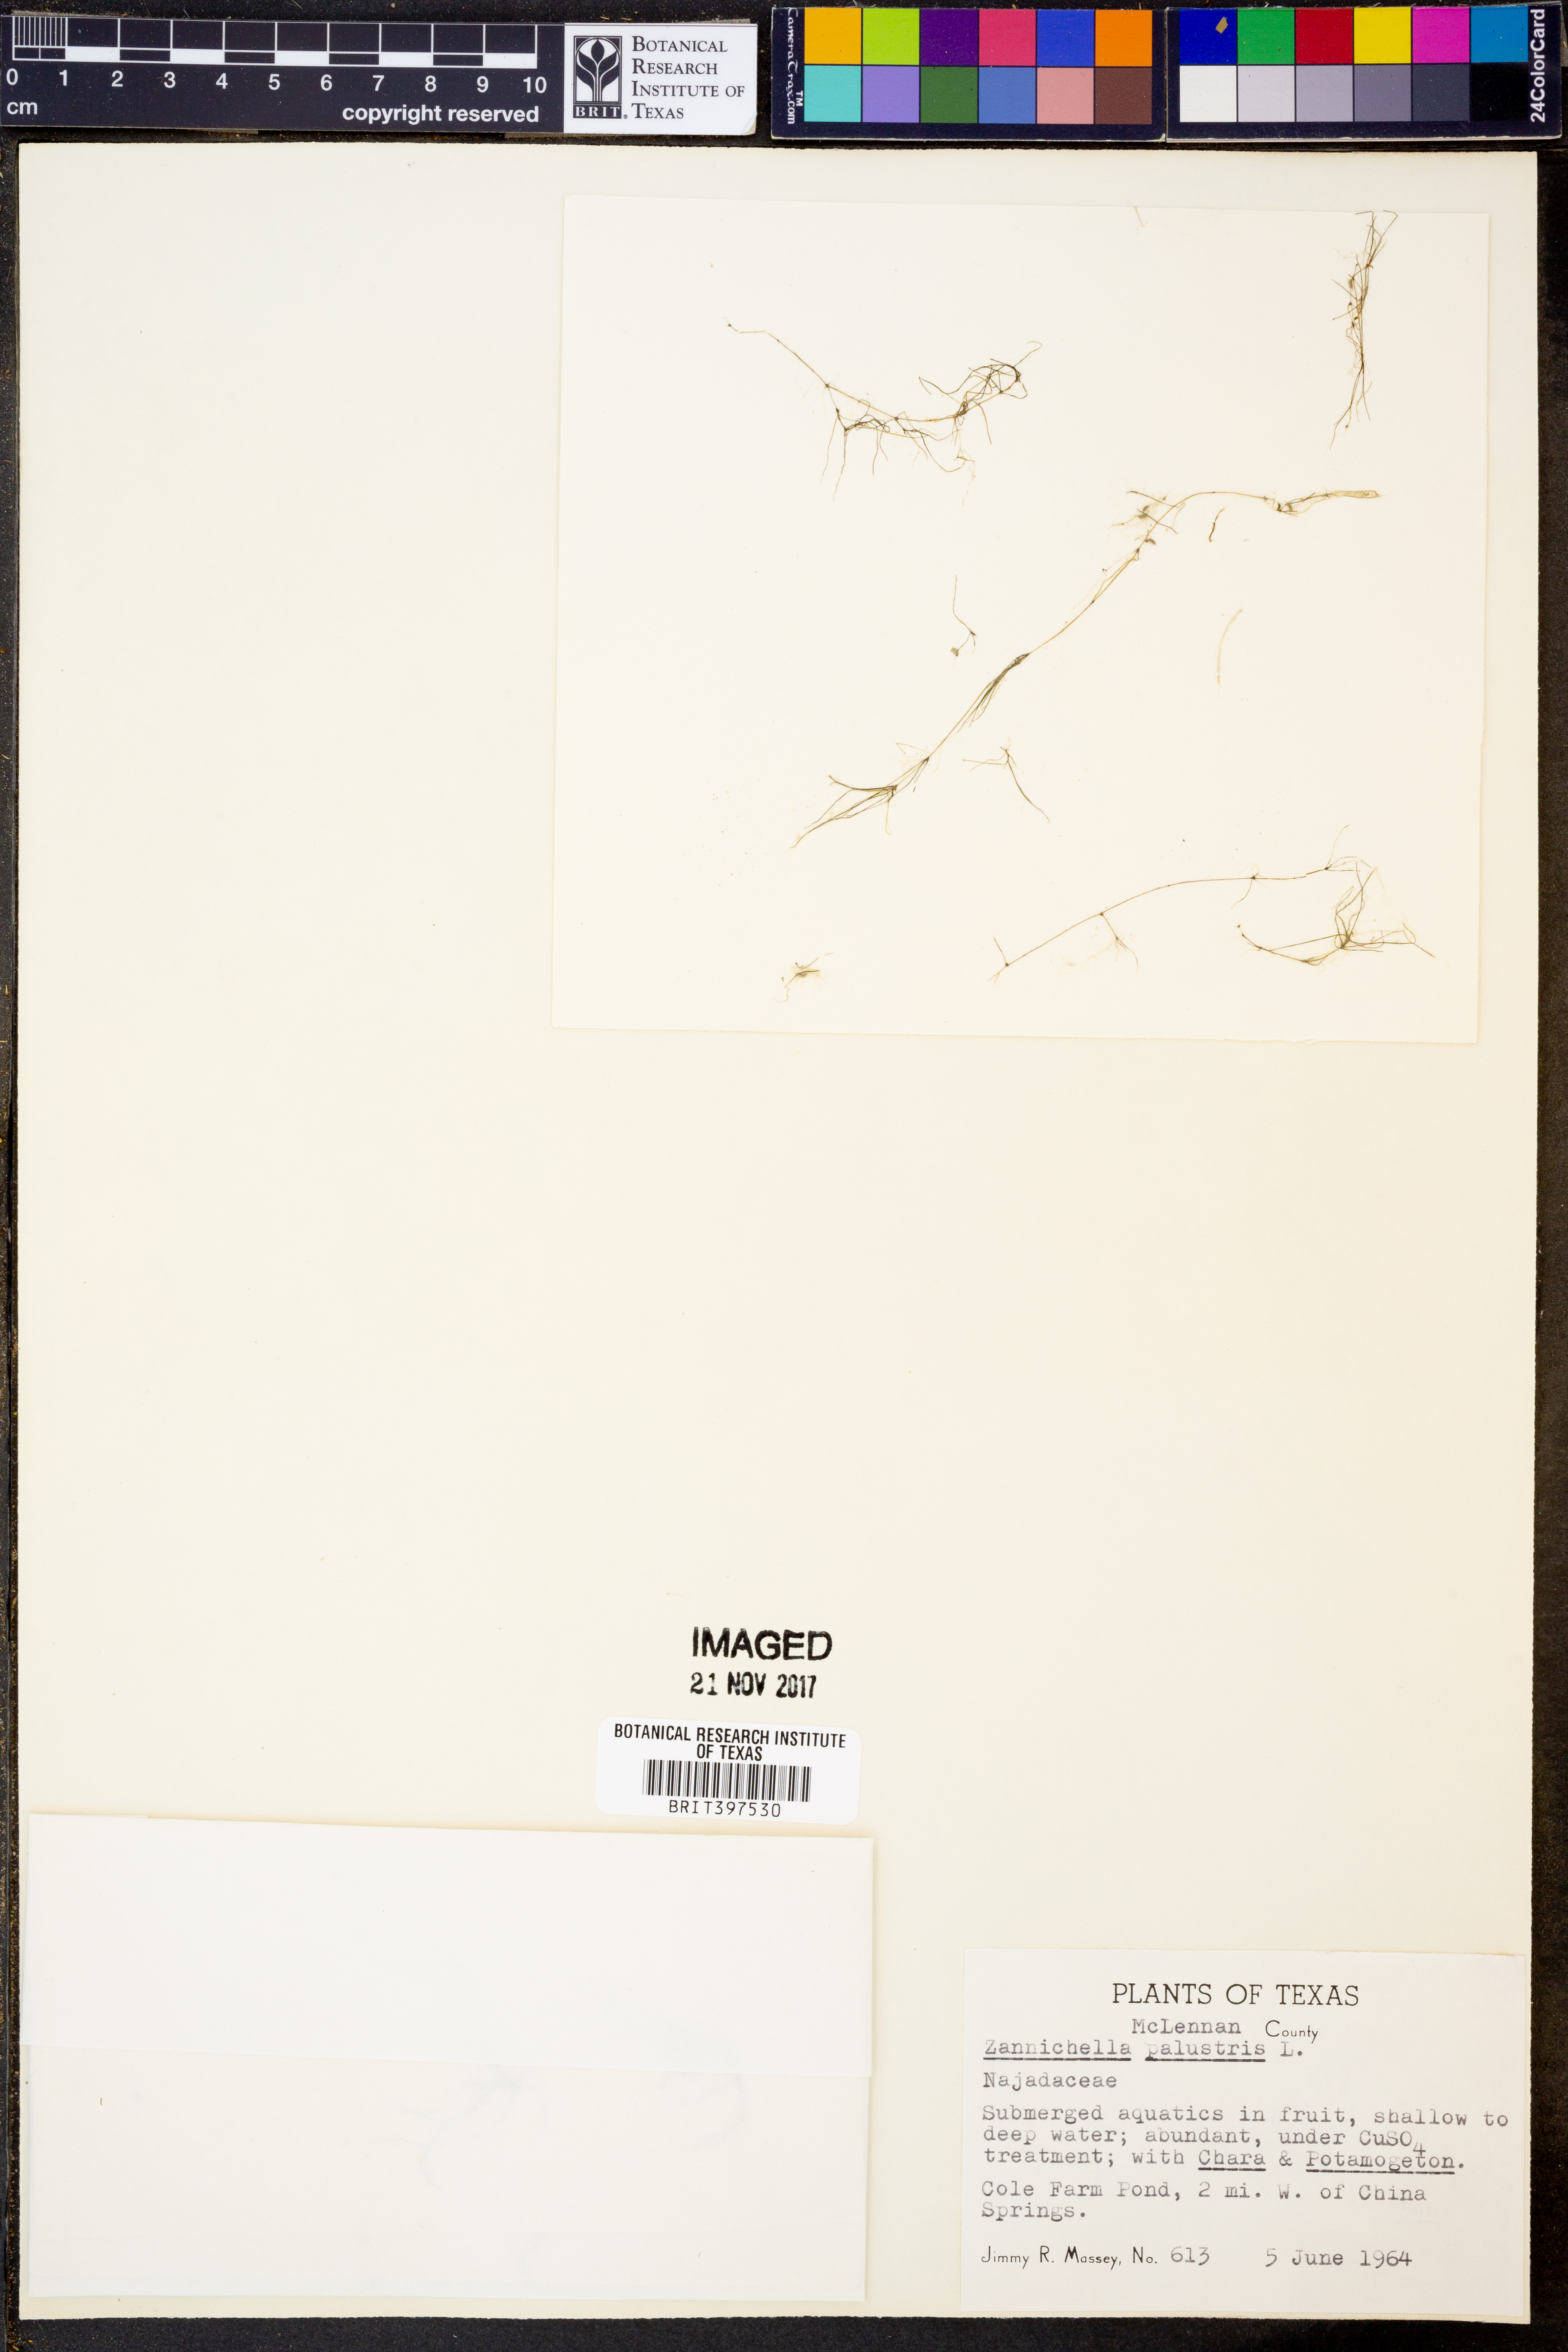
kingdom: Plantae
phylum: Tracheophyta
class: Liliopsida
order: Alismatales
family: Potamogetonaceae
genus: Zannichellia
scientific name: Zannichellia palustris
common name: Horned pondweed
